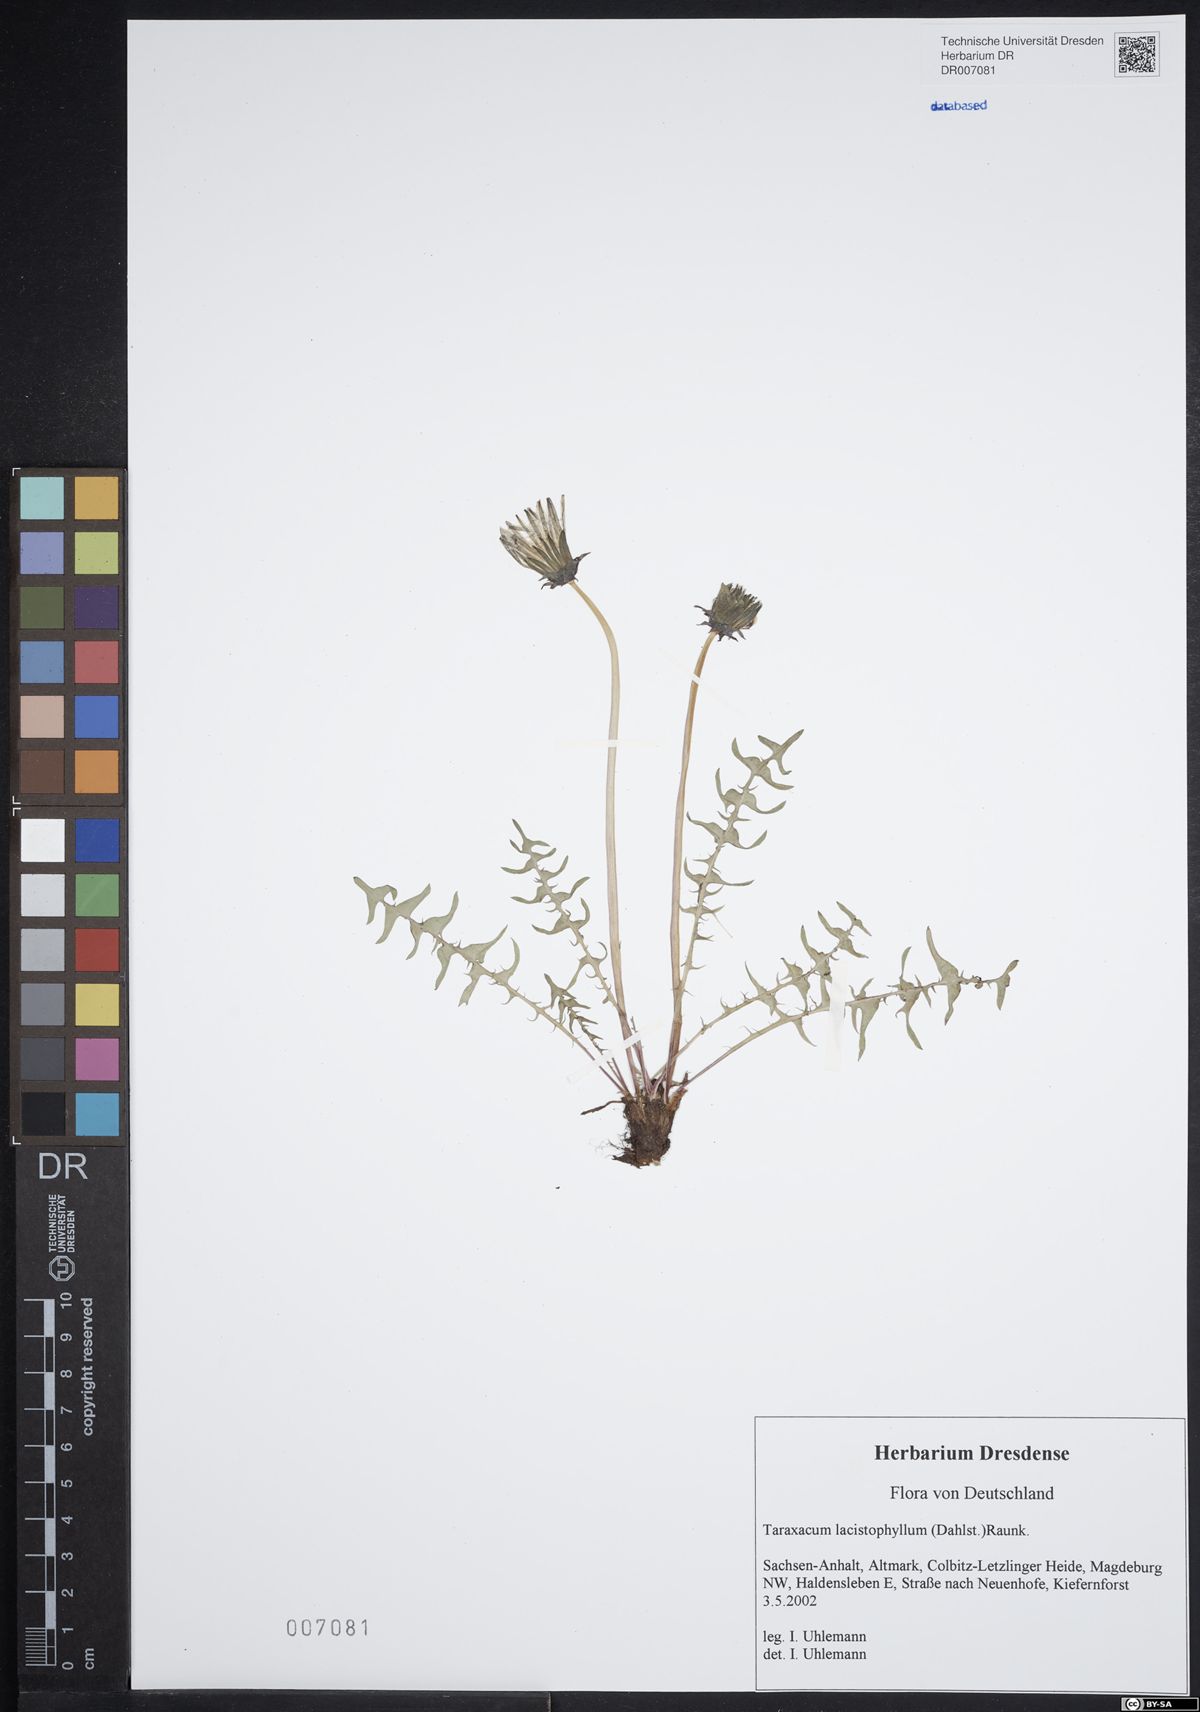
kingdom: Plantae
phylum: Tracheophyta
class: Magnoliopsida
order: Asterales
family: Asteraceae
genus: Taraxacum
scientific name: Taraxacum lacistophyllum
